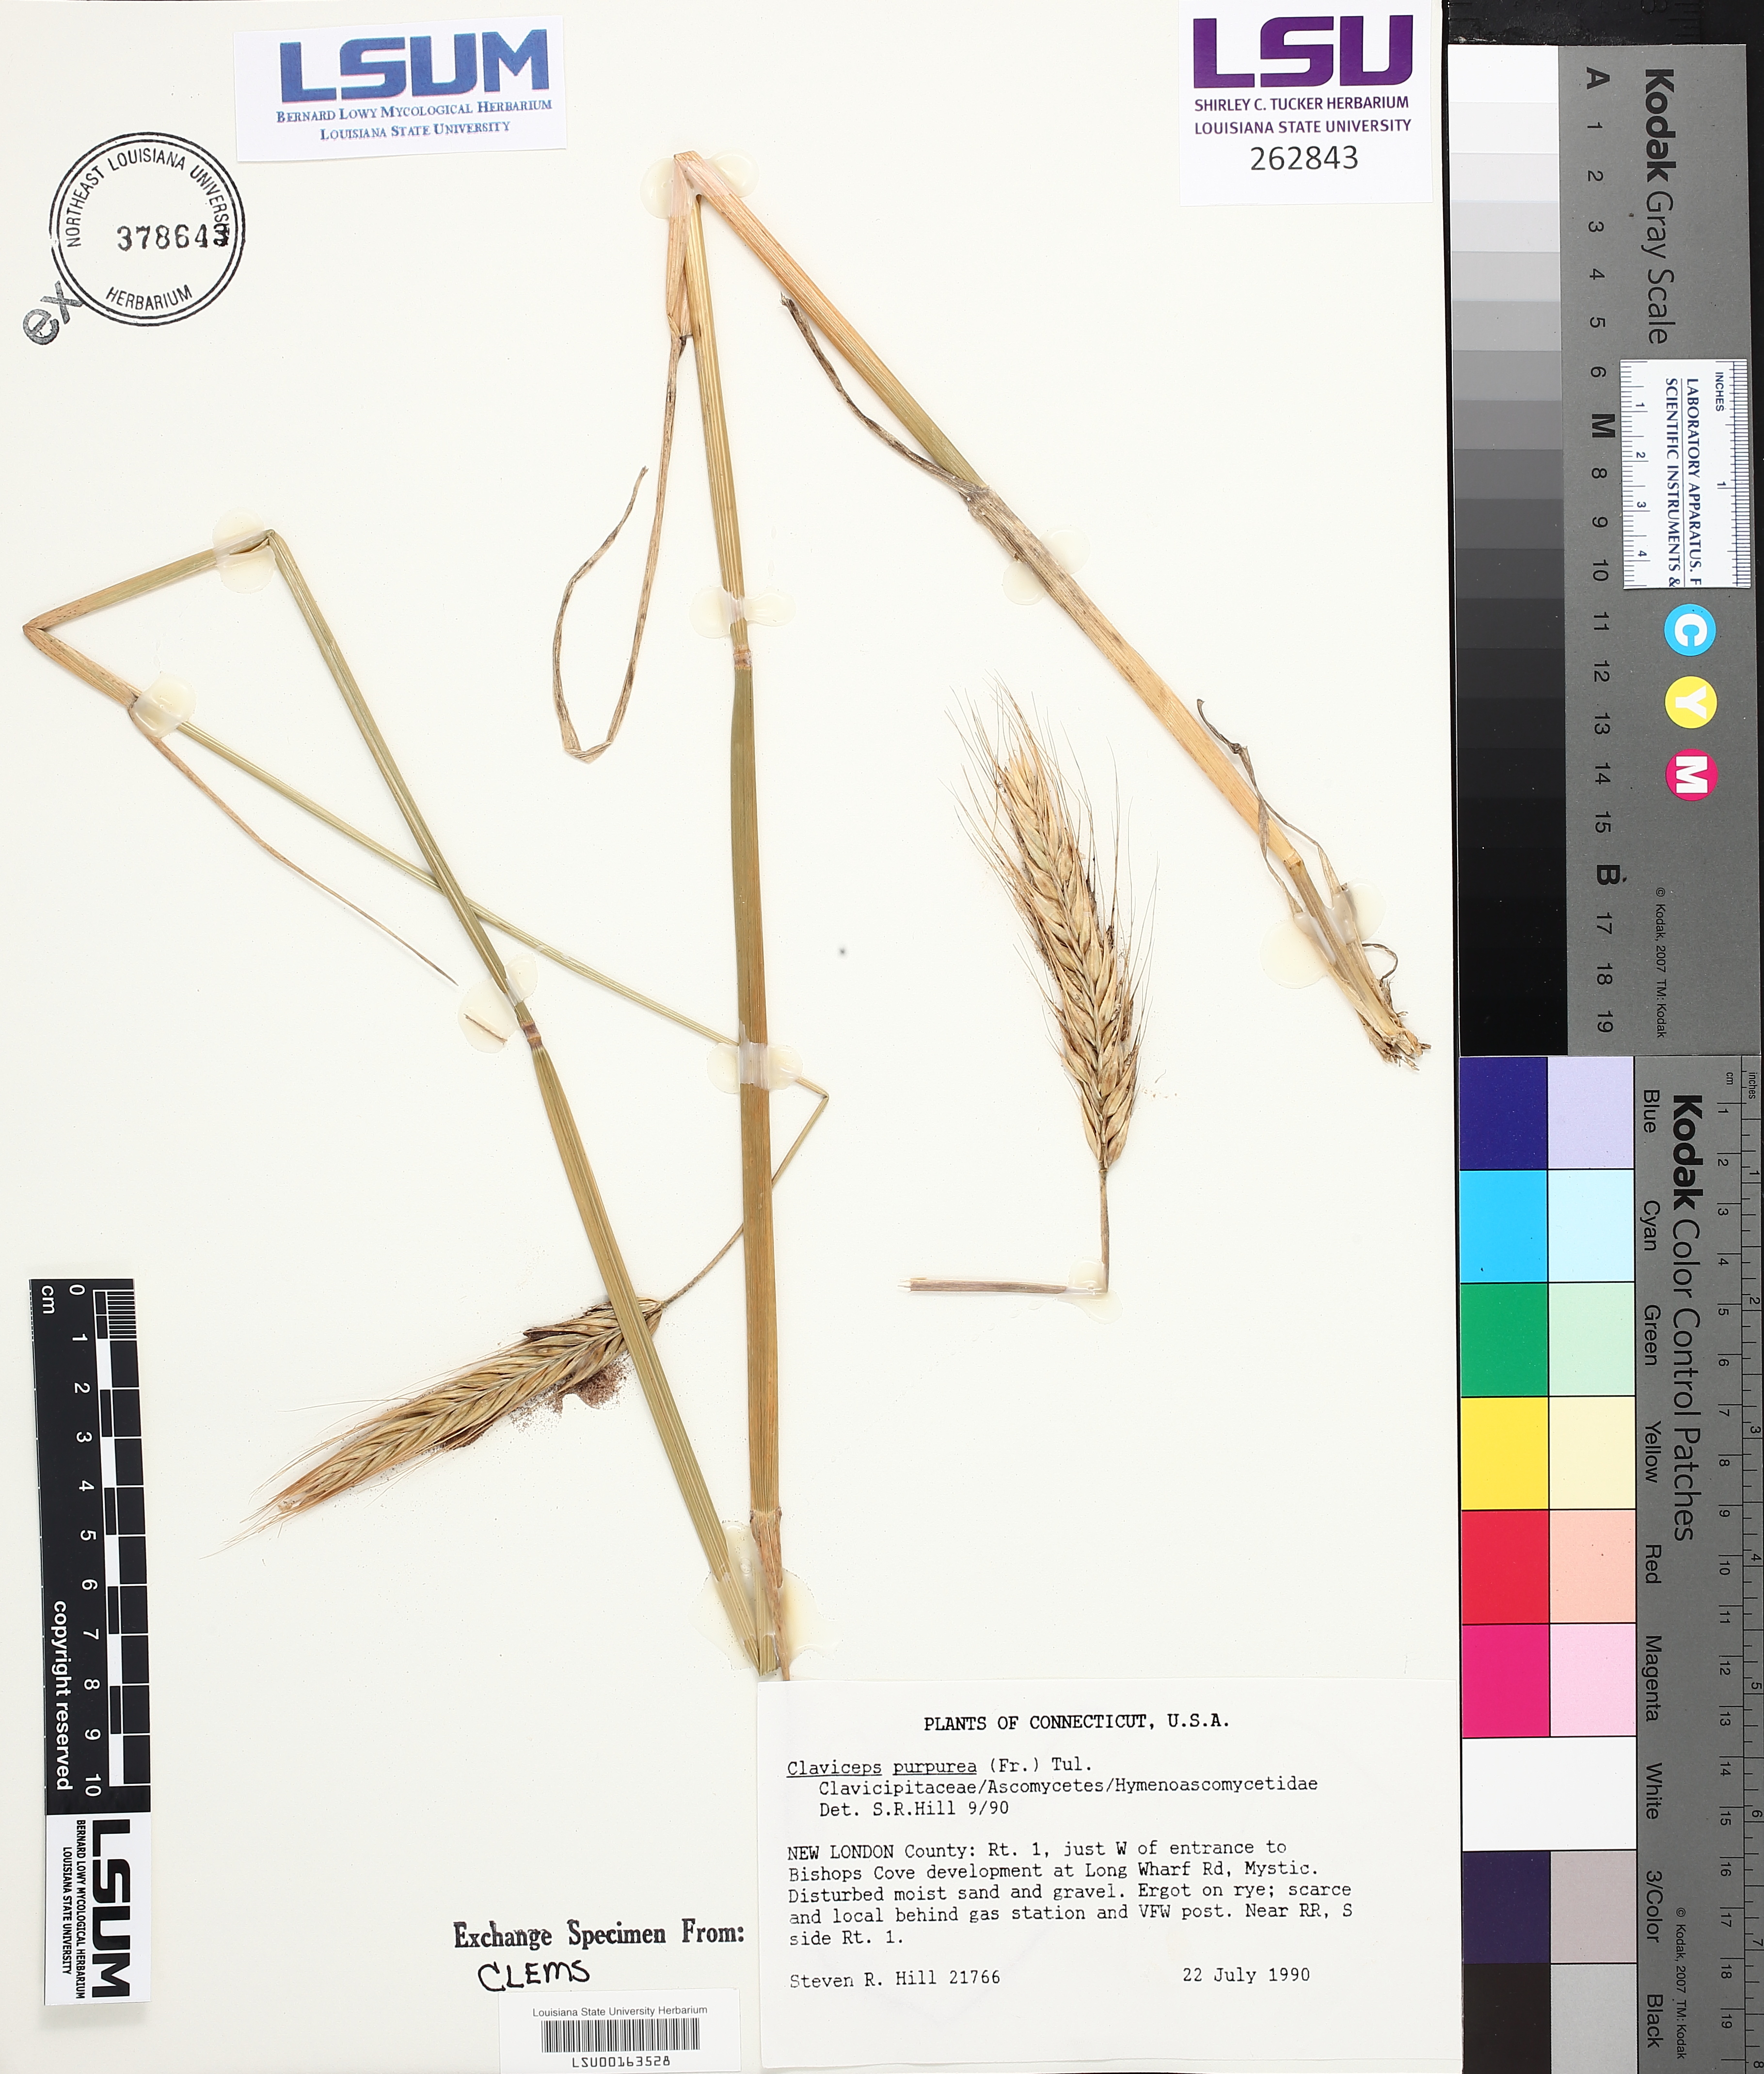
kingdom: Fungi
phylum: Ascomycota
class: Sordariomycetes
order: Hypocreales
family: Clavicipitaceae
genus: Claviceps
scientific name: Claviceps purpurea
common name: Rye ergot
